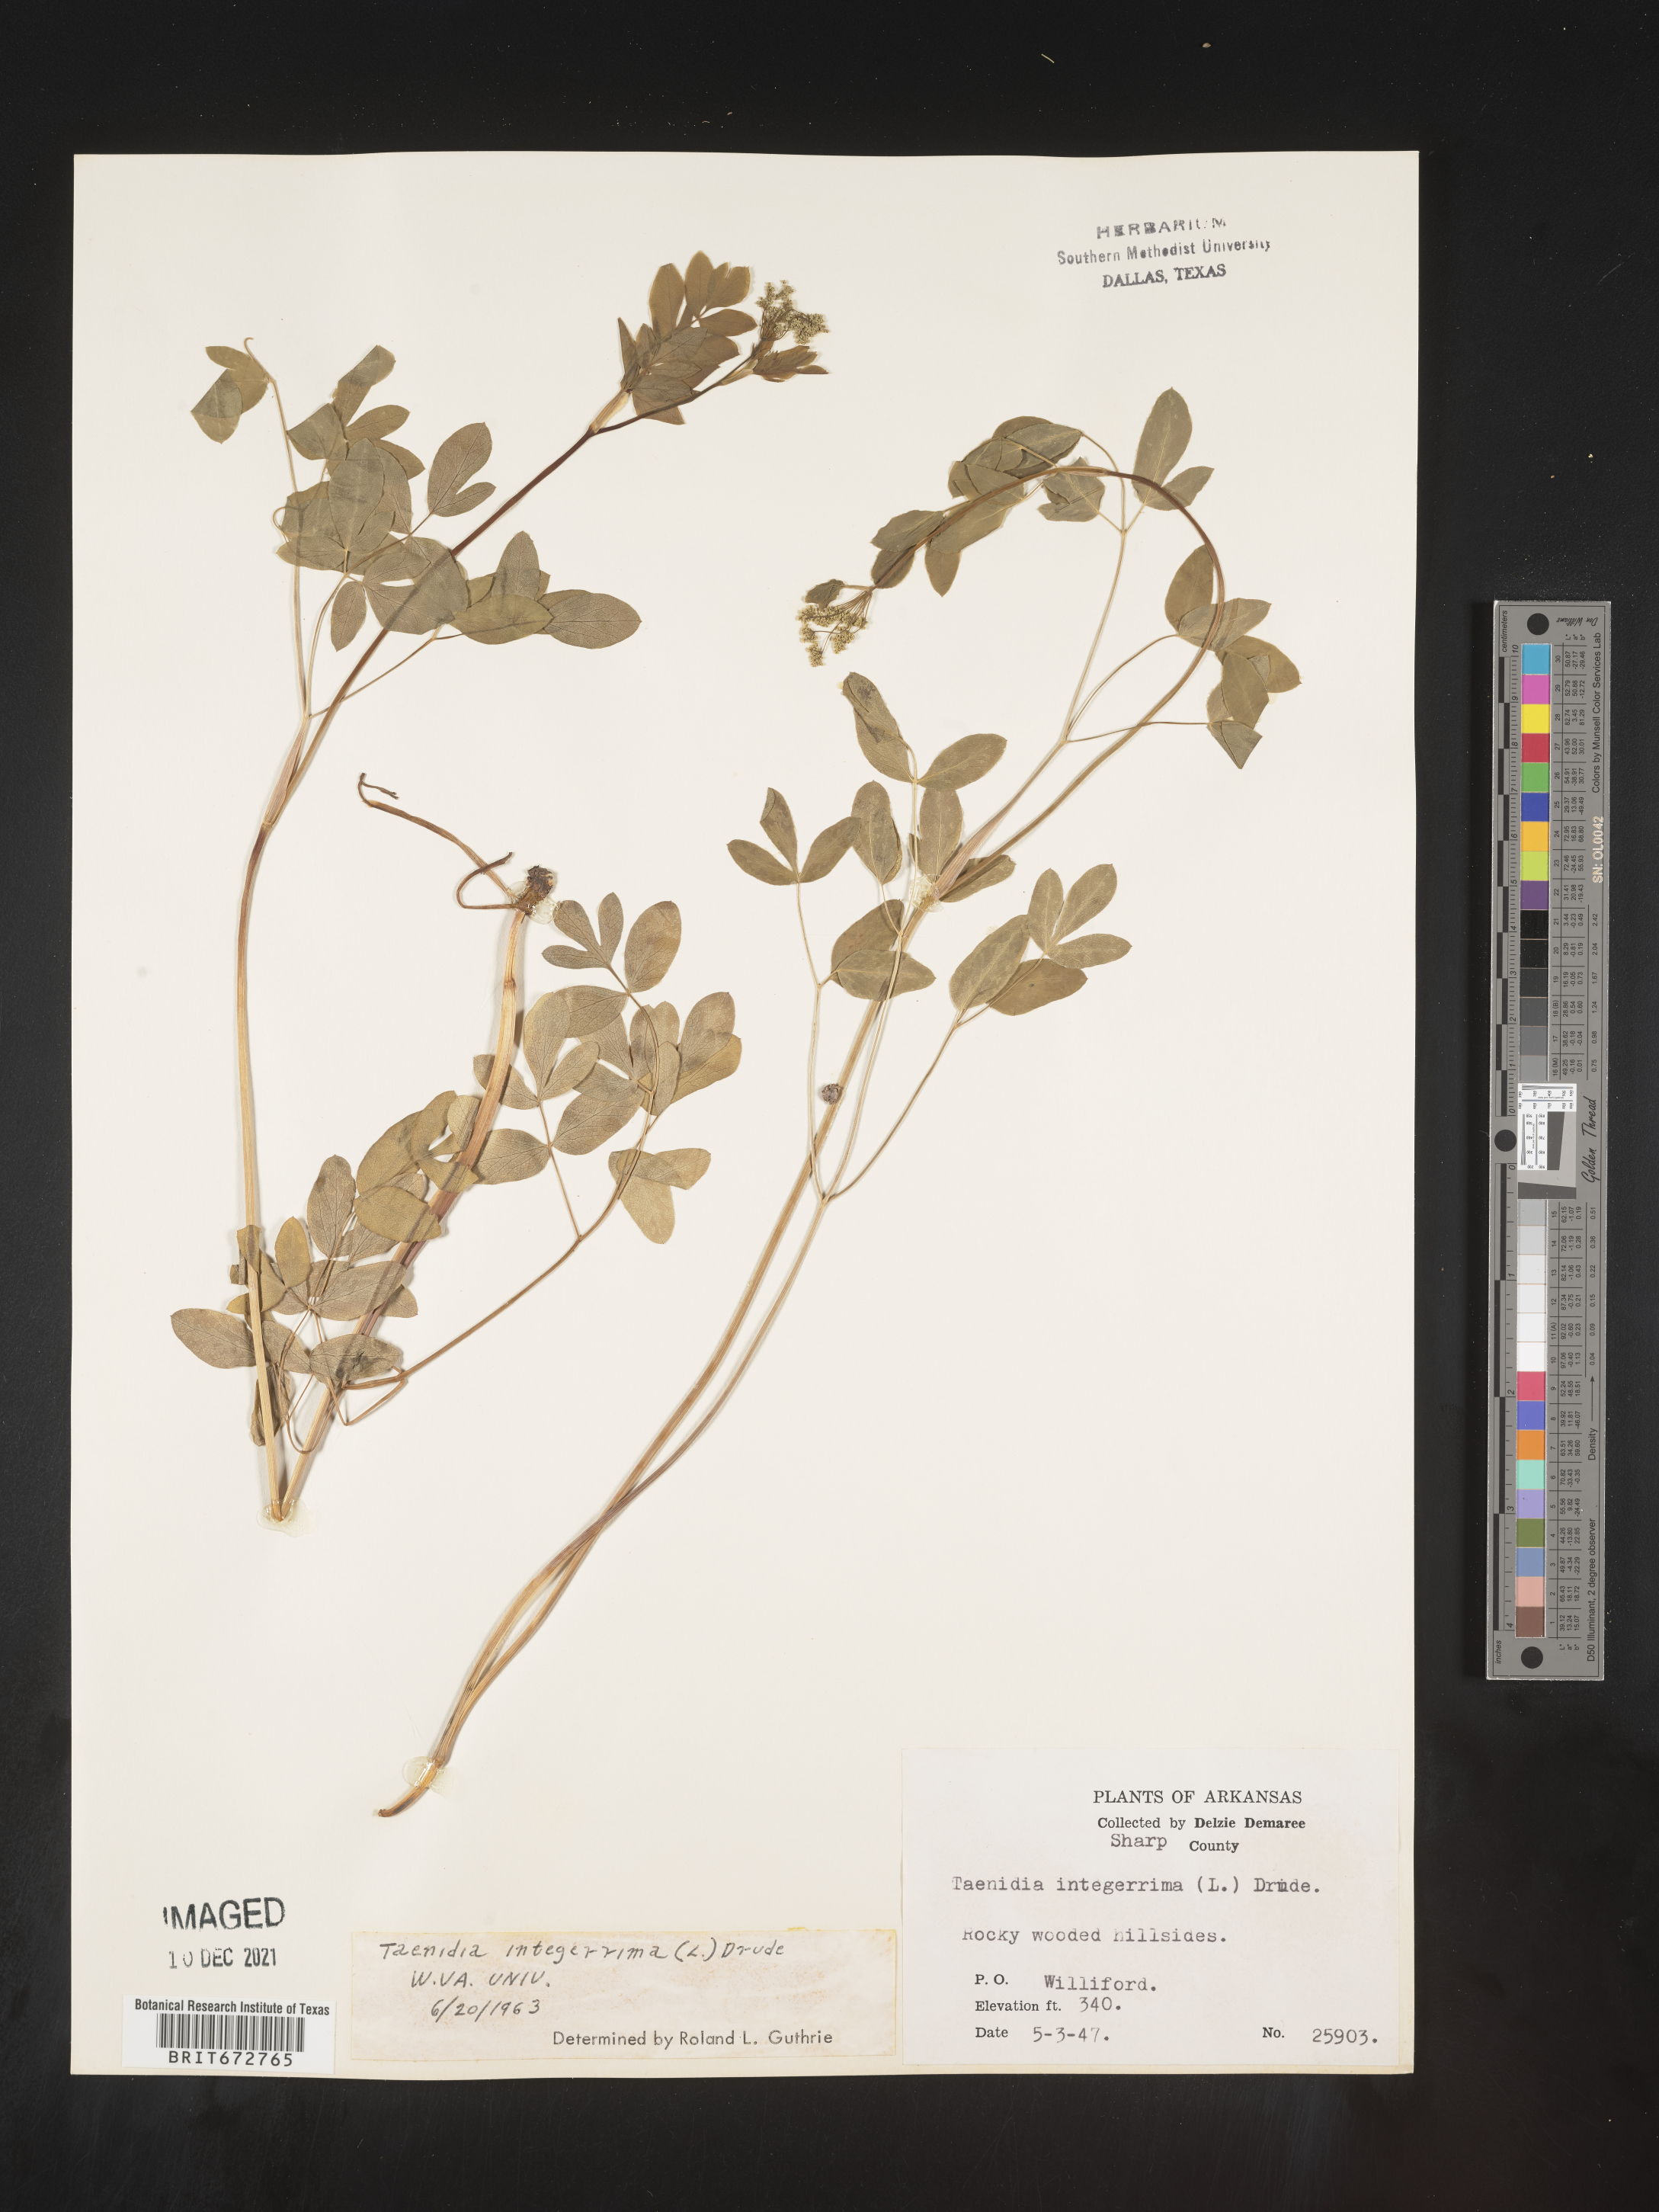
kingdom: Plantae
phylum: Tracheophyta
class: Magnoliopsida
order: Apiales
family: Apiaceae
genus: Taenidia
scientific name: Taenidia integerrima
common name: Golden alexander
